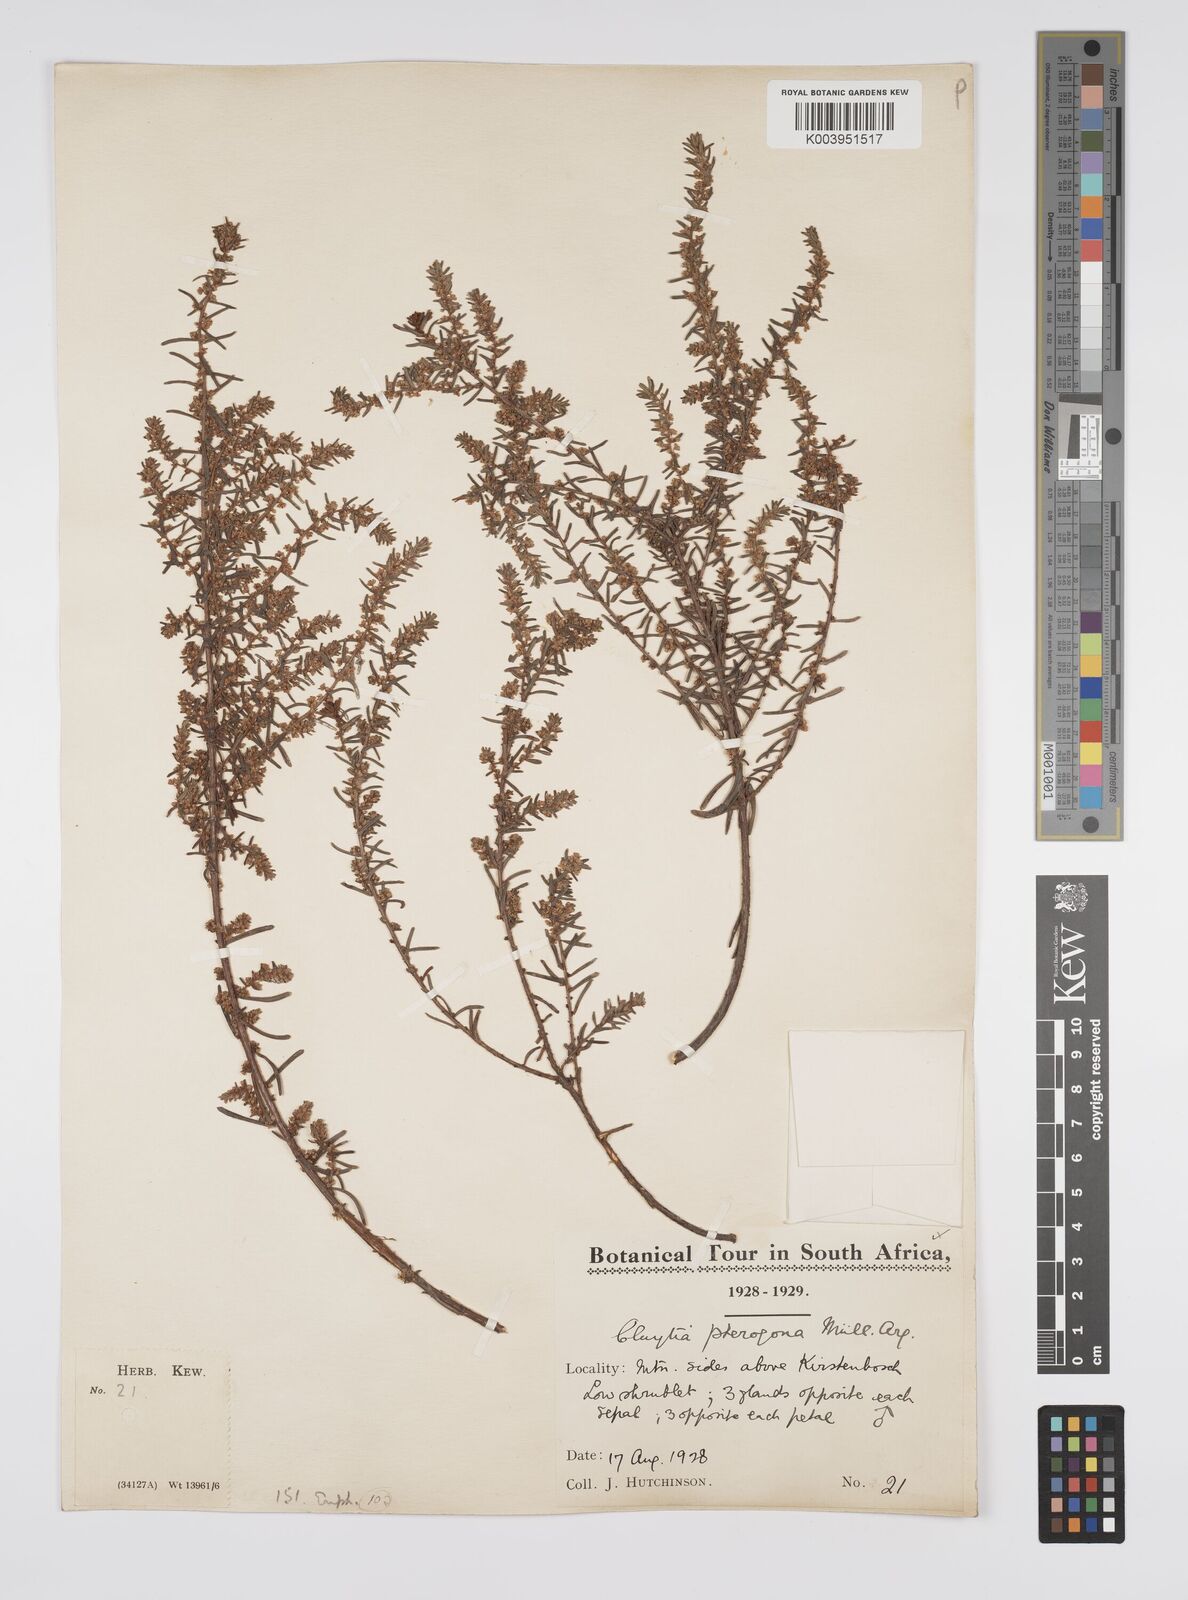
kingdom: Plantae
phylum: Tracheophyta
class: Magnoliopsida
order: Malpighiales
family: Peraceae
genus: Clutia
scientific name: Clutia pterogona
